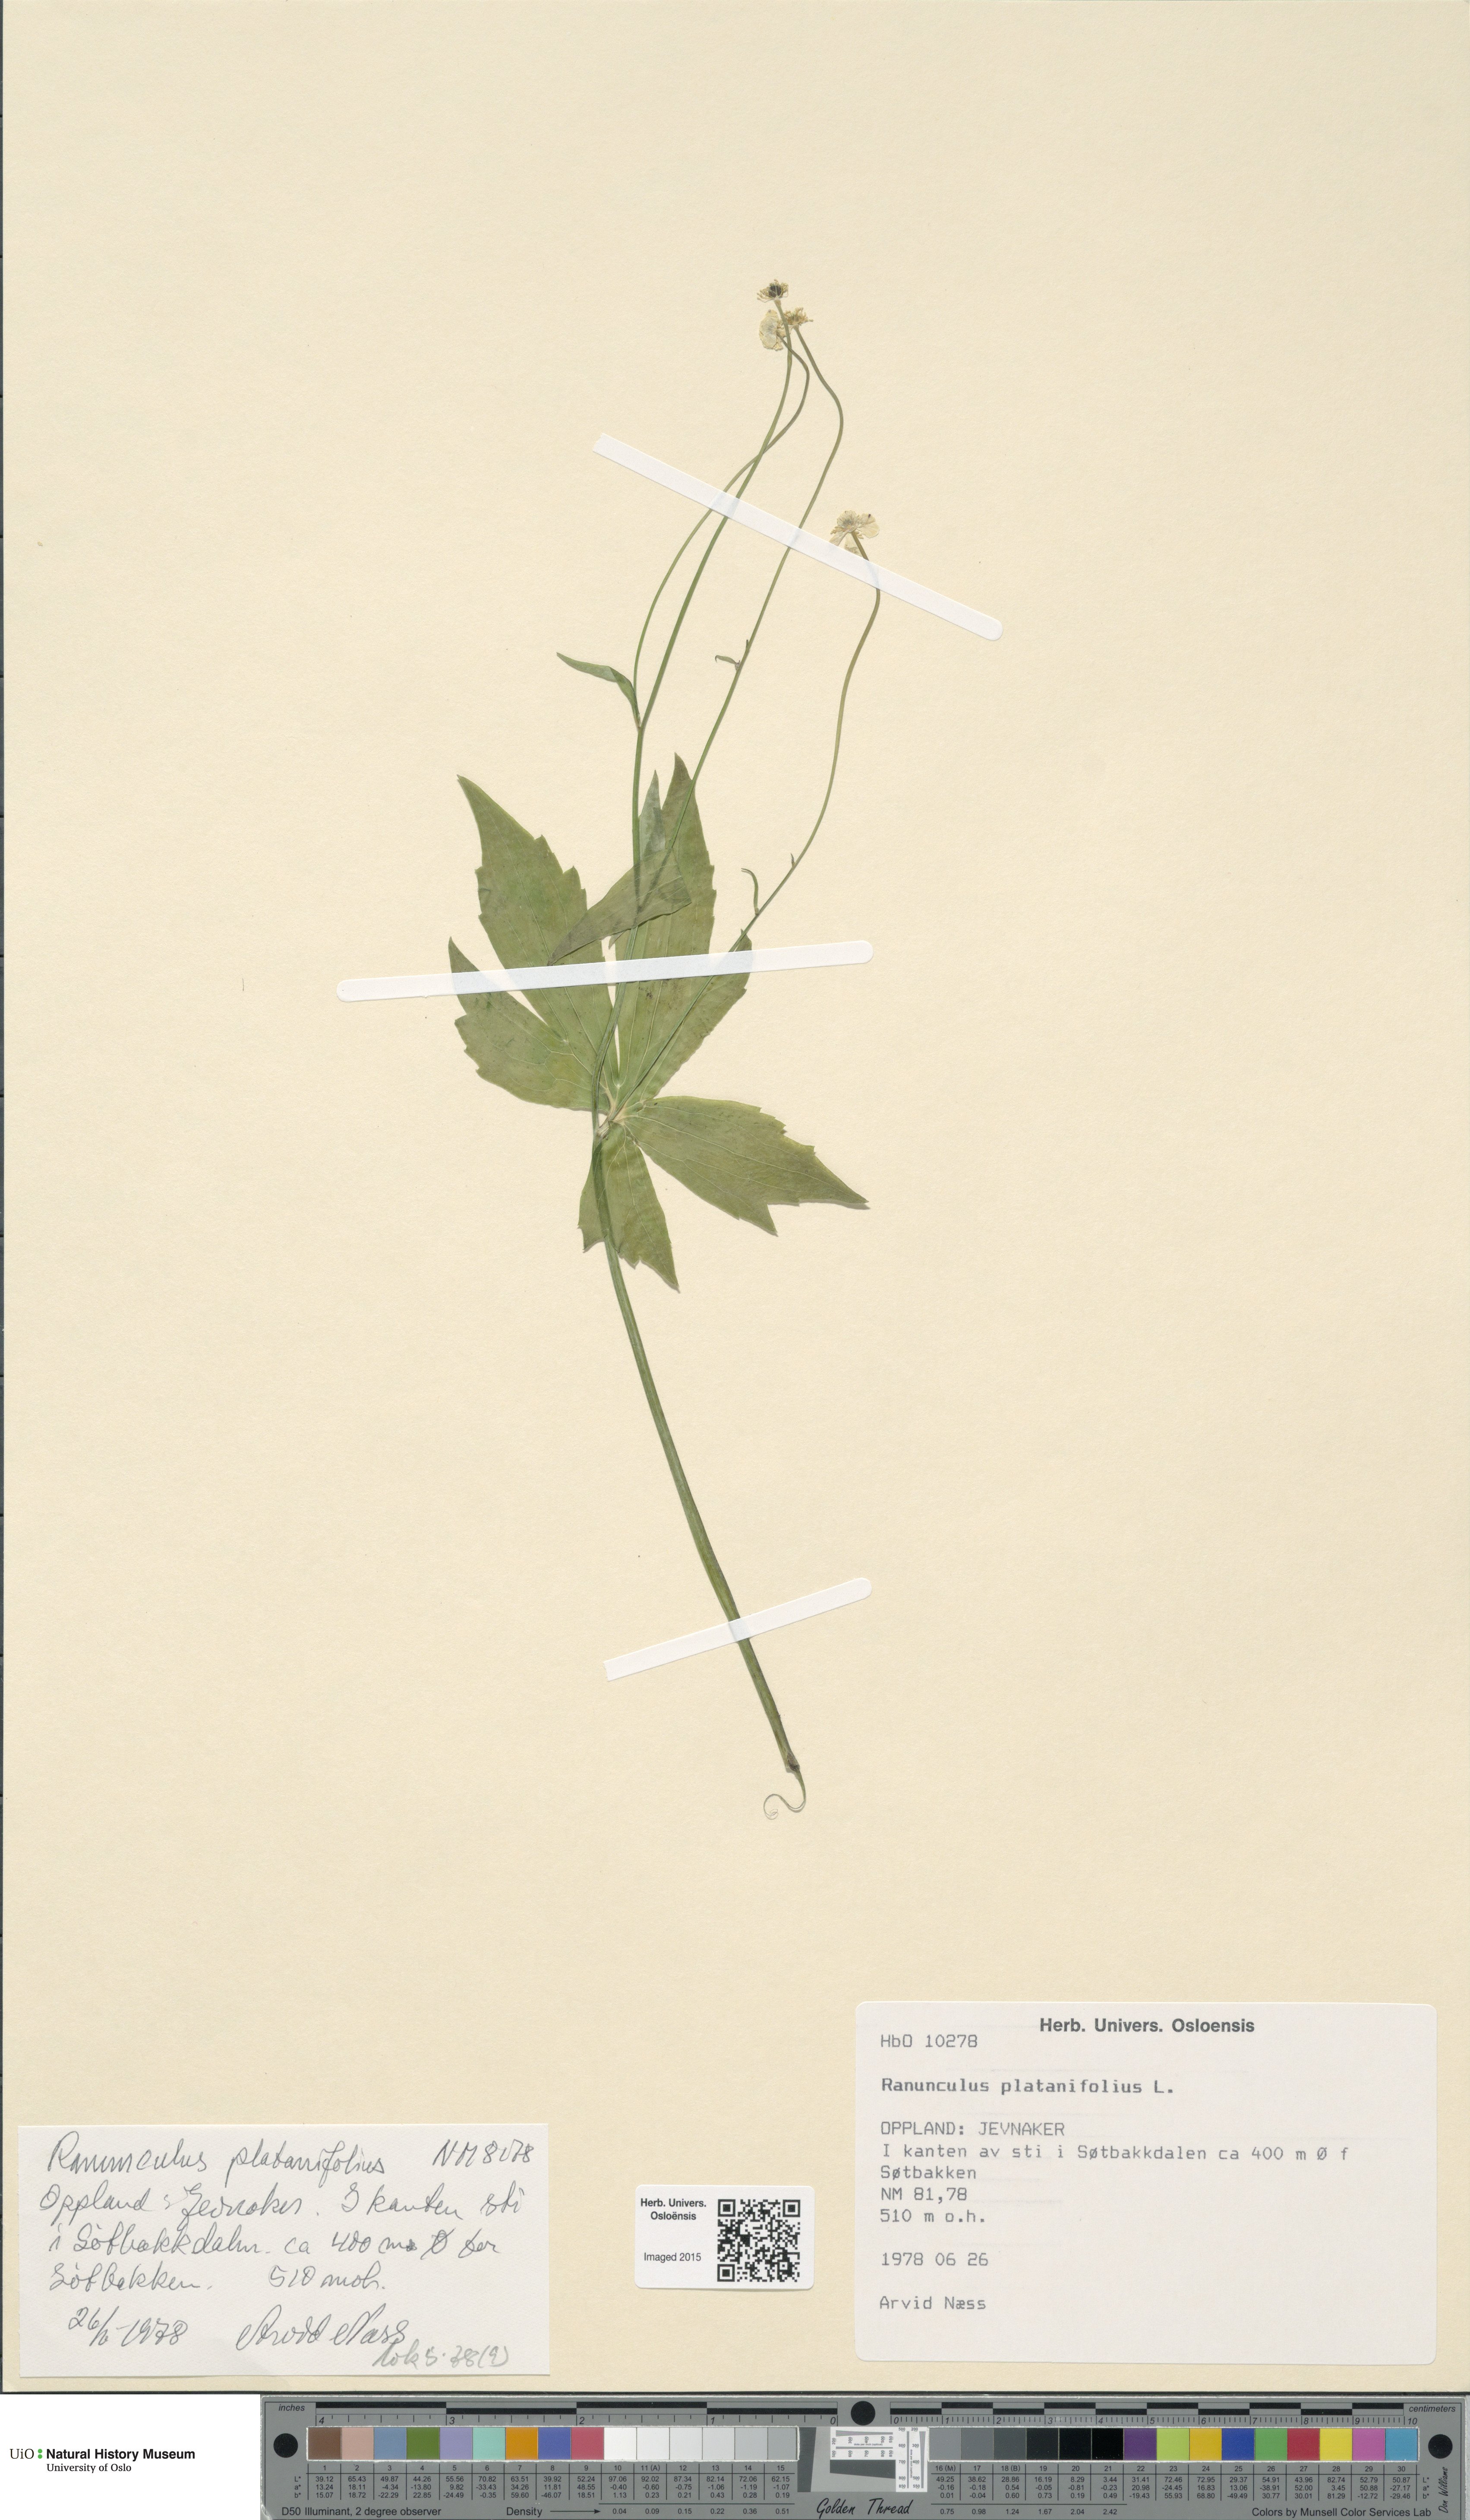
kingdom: Plantae
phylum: Tracheophyta
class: Magnoliopsida
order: Ranunculales
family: Ranunculaceae
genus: Ranunculus
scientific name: Ranunculus platanifolius
